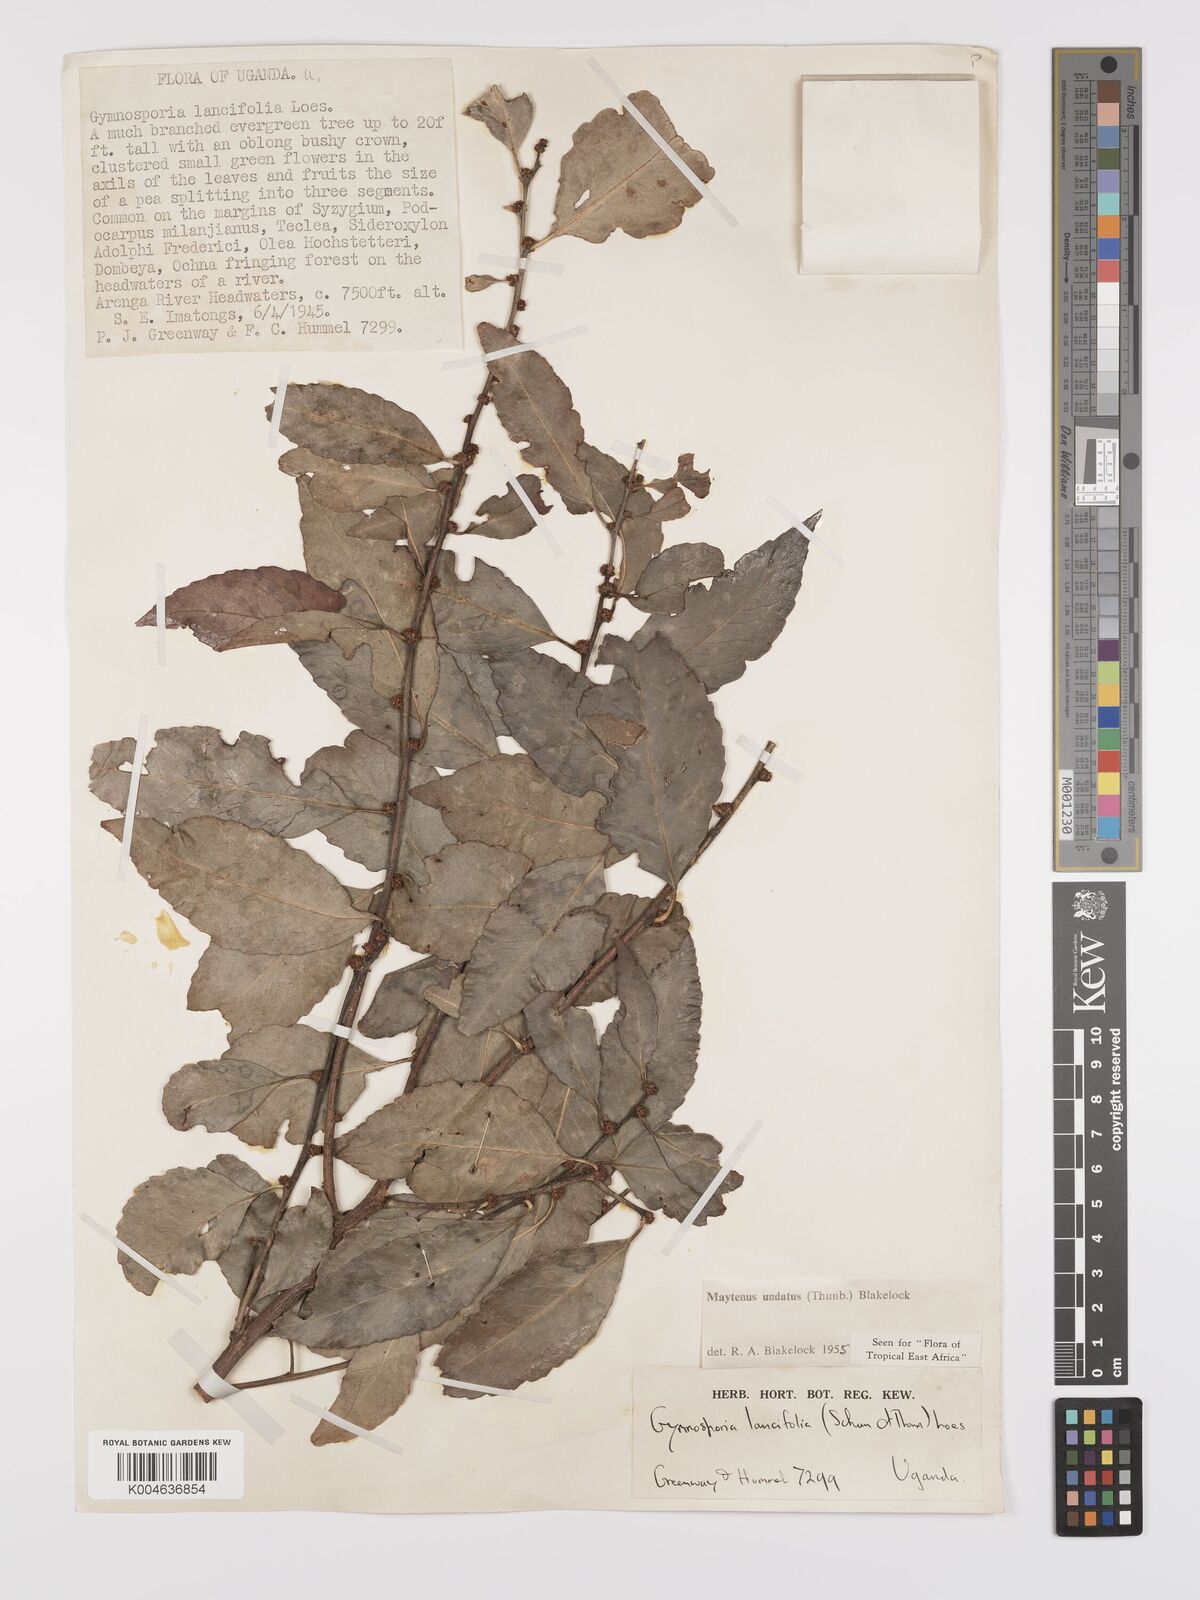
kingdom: Plantae
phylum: Tracheophyta
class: Magnoliopsida
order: Celastrales
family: Celastraceae
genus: Gymnosporia
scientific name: Gymnosporia undata
